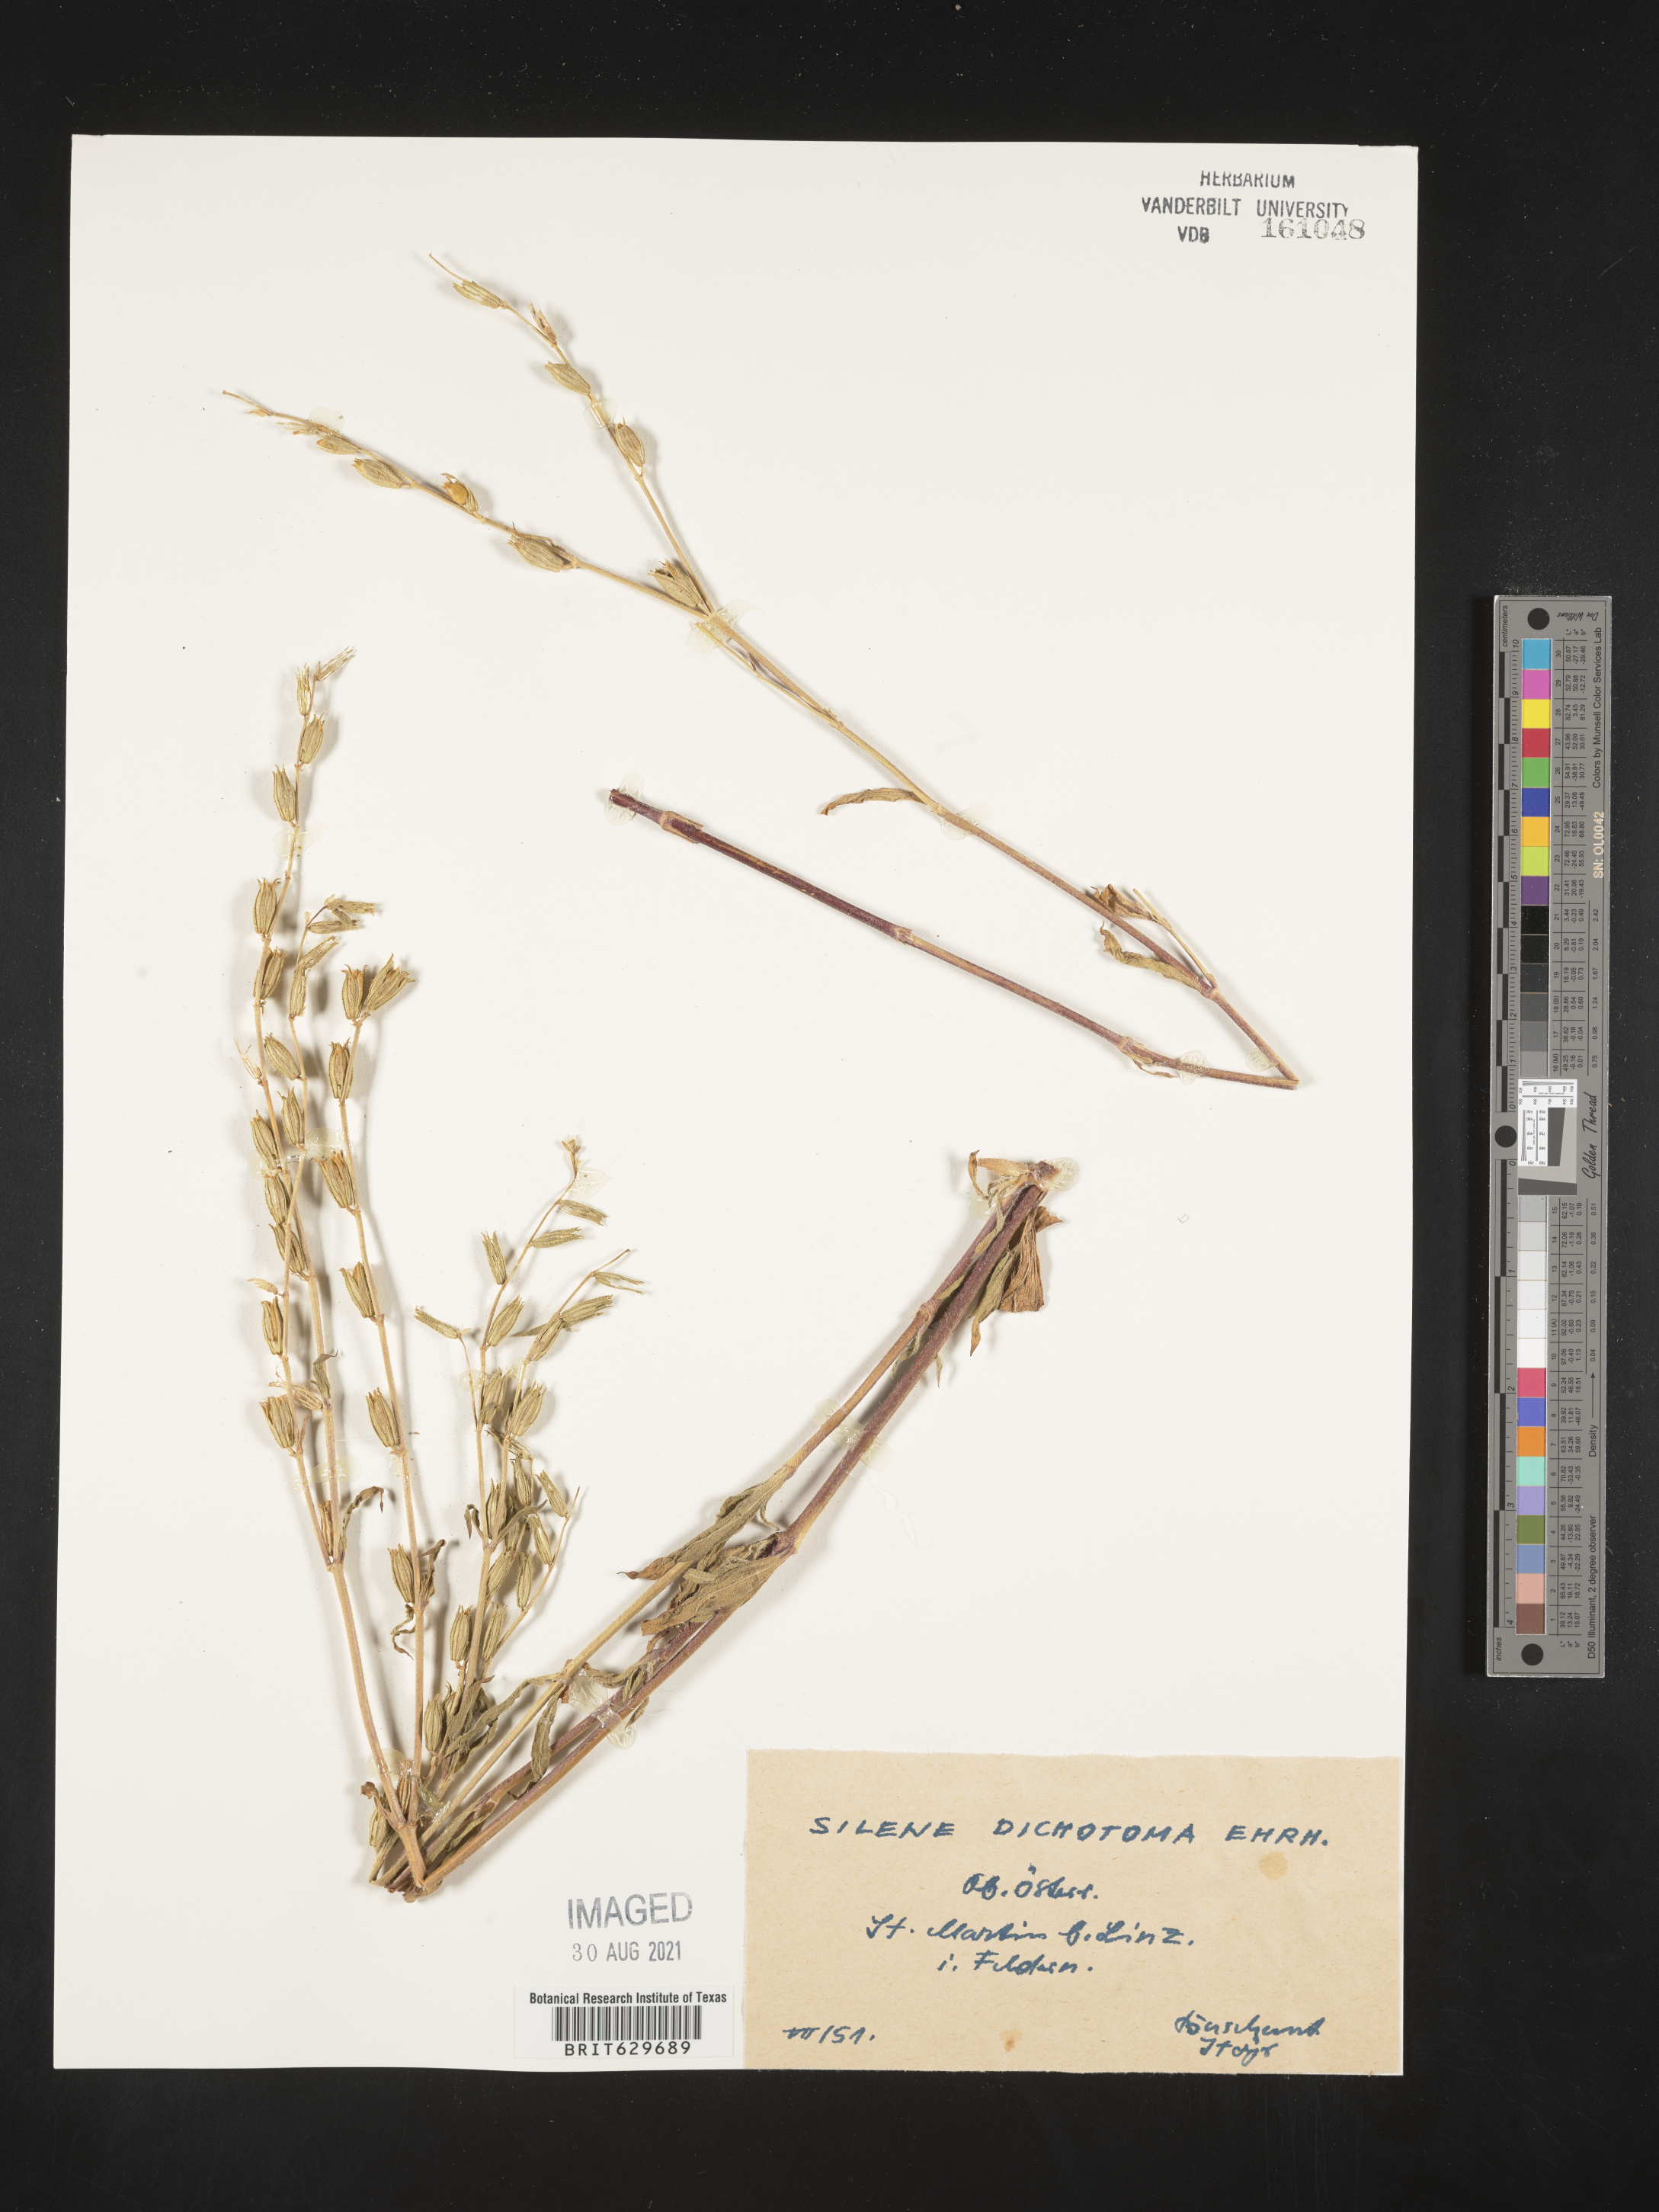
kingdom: Plantae
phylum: Tracheophyta
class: Magnoliopsida
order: Caryophyllales
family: Caryophyllaceae
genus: Silene
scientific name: Silene
